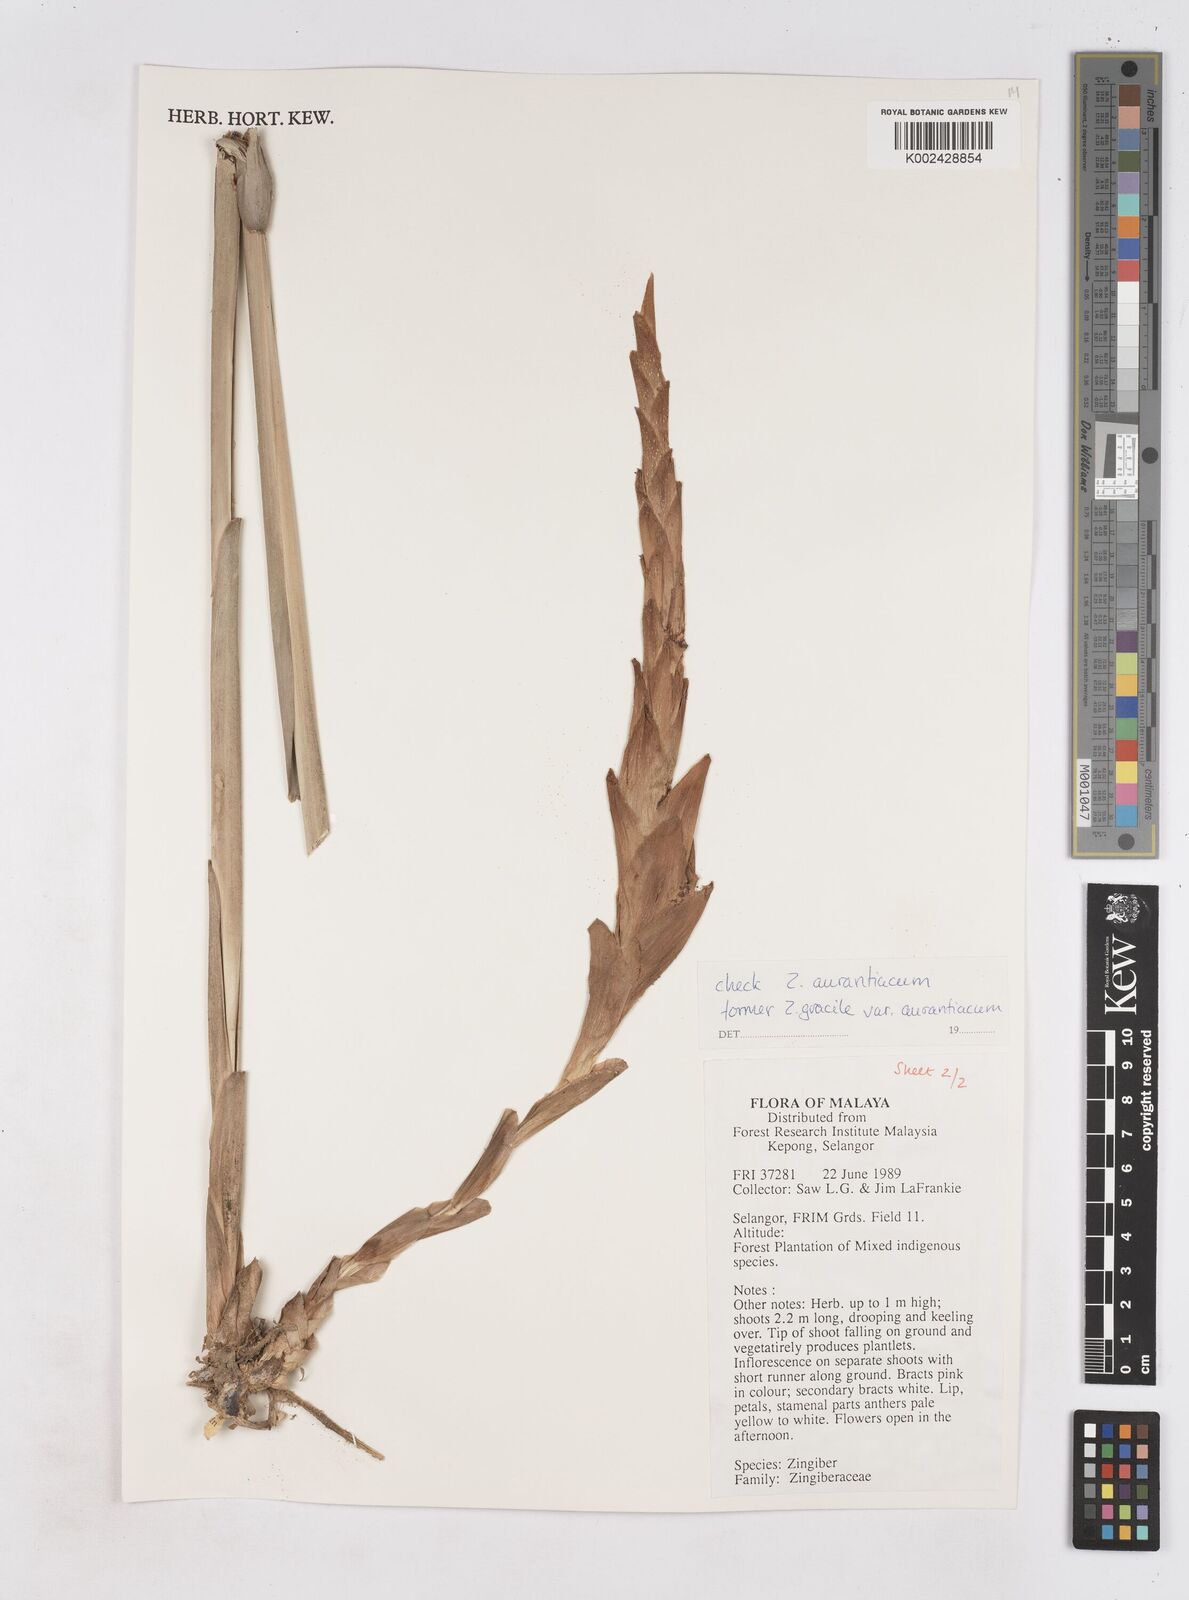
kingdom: Plantae
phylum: Tracheophyta
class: Liliopsida
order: Zingiberales
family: Zingiberaceae
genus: Zingiber
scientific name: Zingiber gracile
